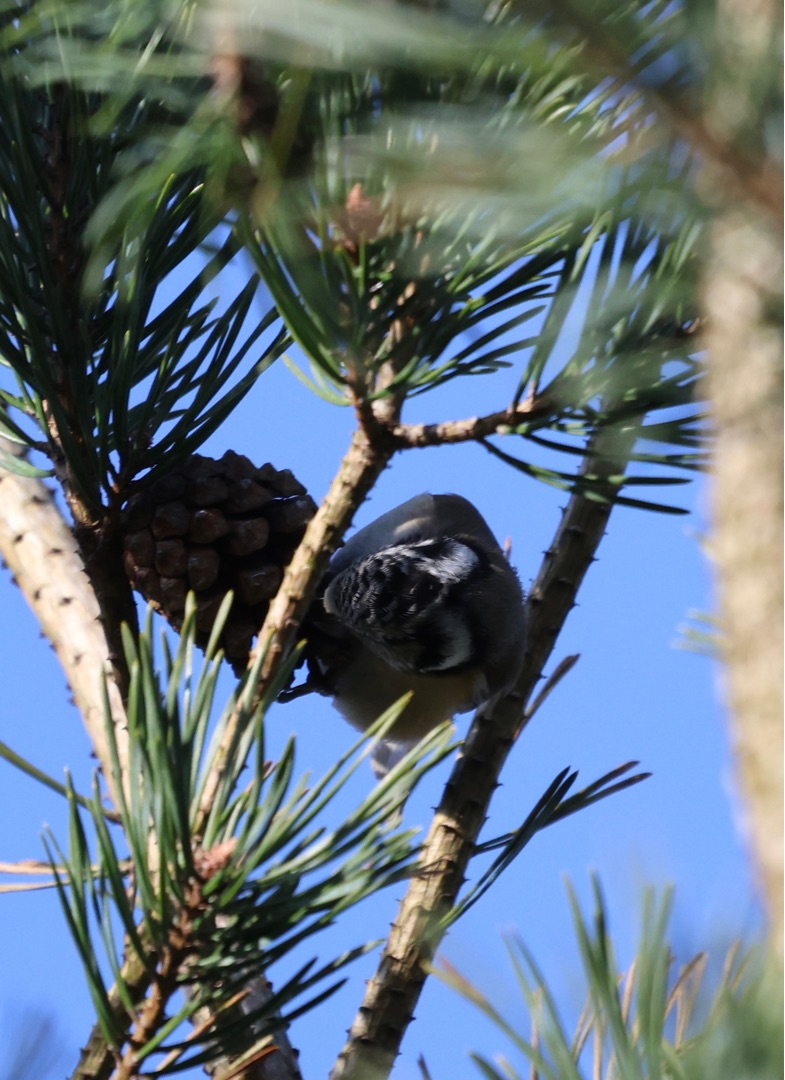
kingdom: Animalia
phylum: Chordata
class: Aves
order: Passeriformes
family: Paridae
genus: Lophophanes
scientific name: Lophophanes cristatus
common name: Topmejse
